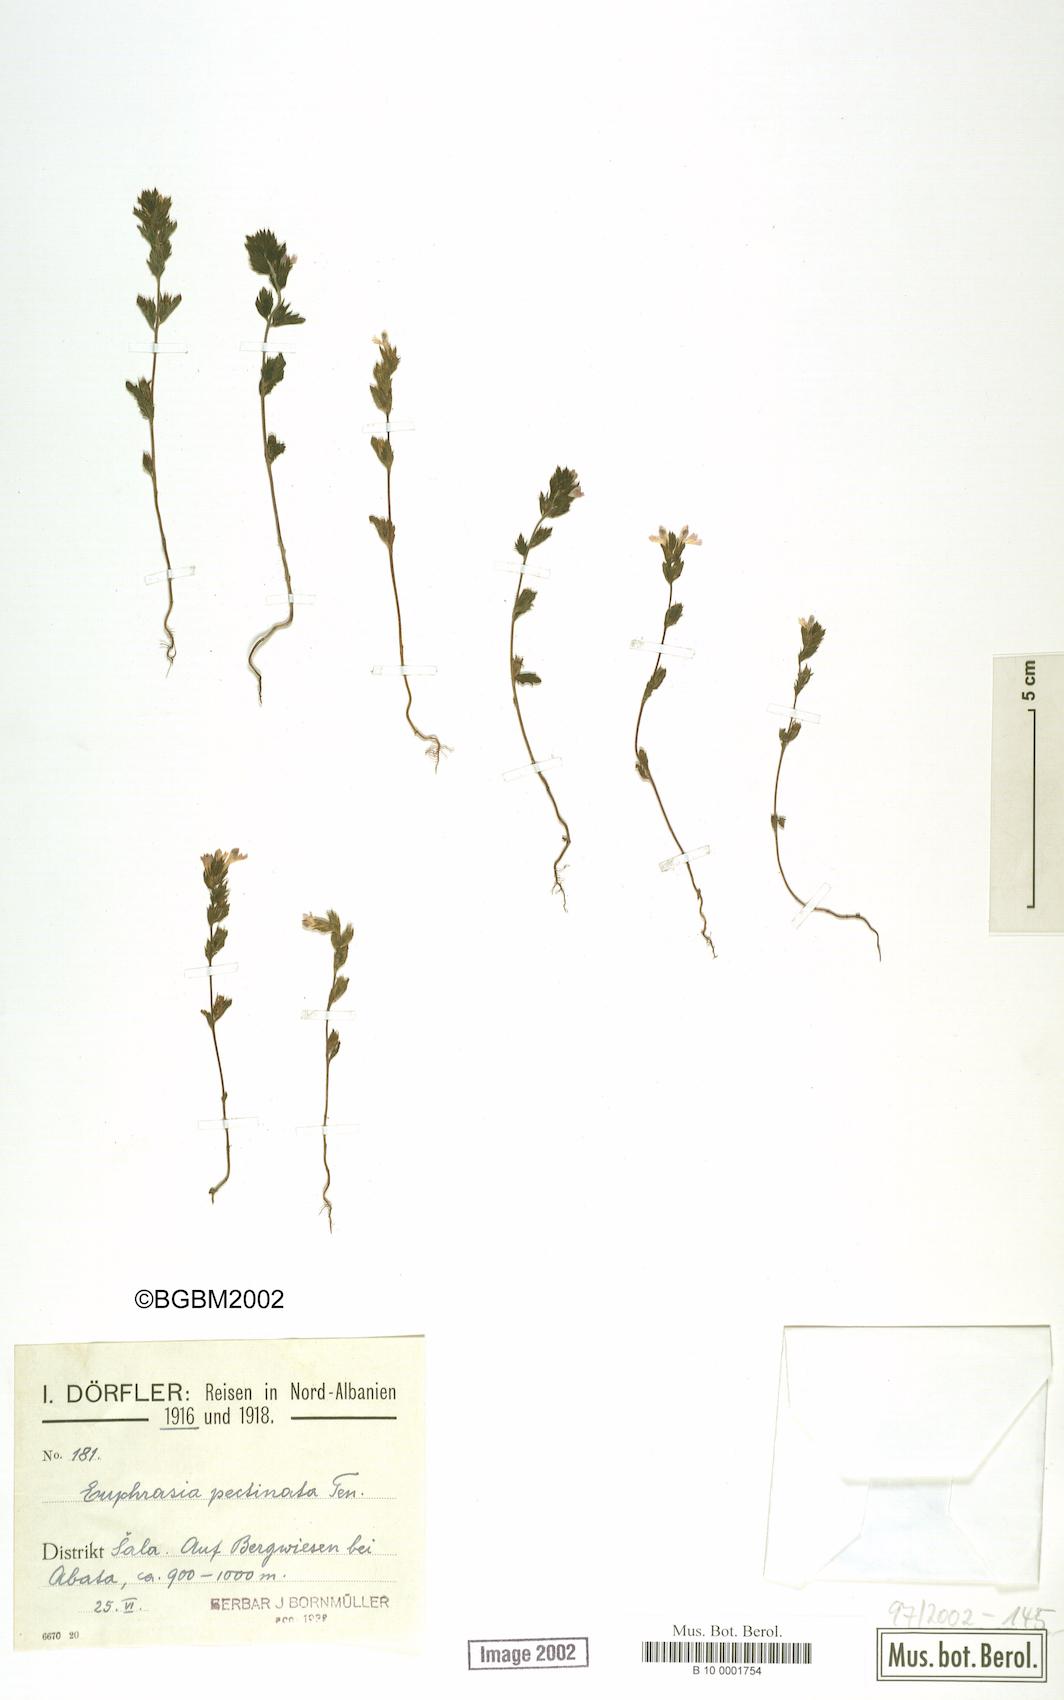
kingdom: Plantae
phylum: Tracheophyta
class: Magnoliopsida
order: Lamiales
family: Orobanchaceae
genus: Euphrasia
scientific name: Euphrasia pectinata
